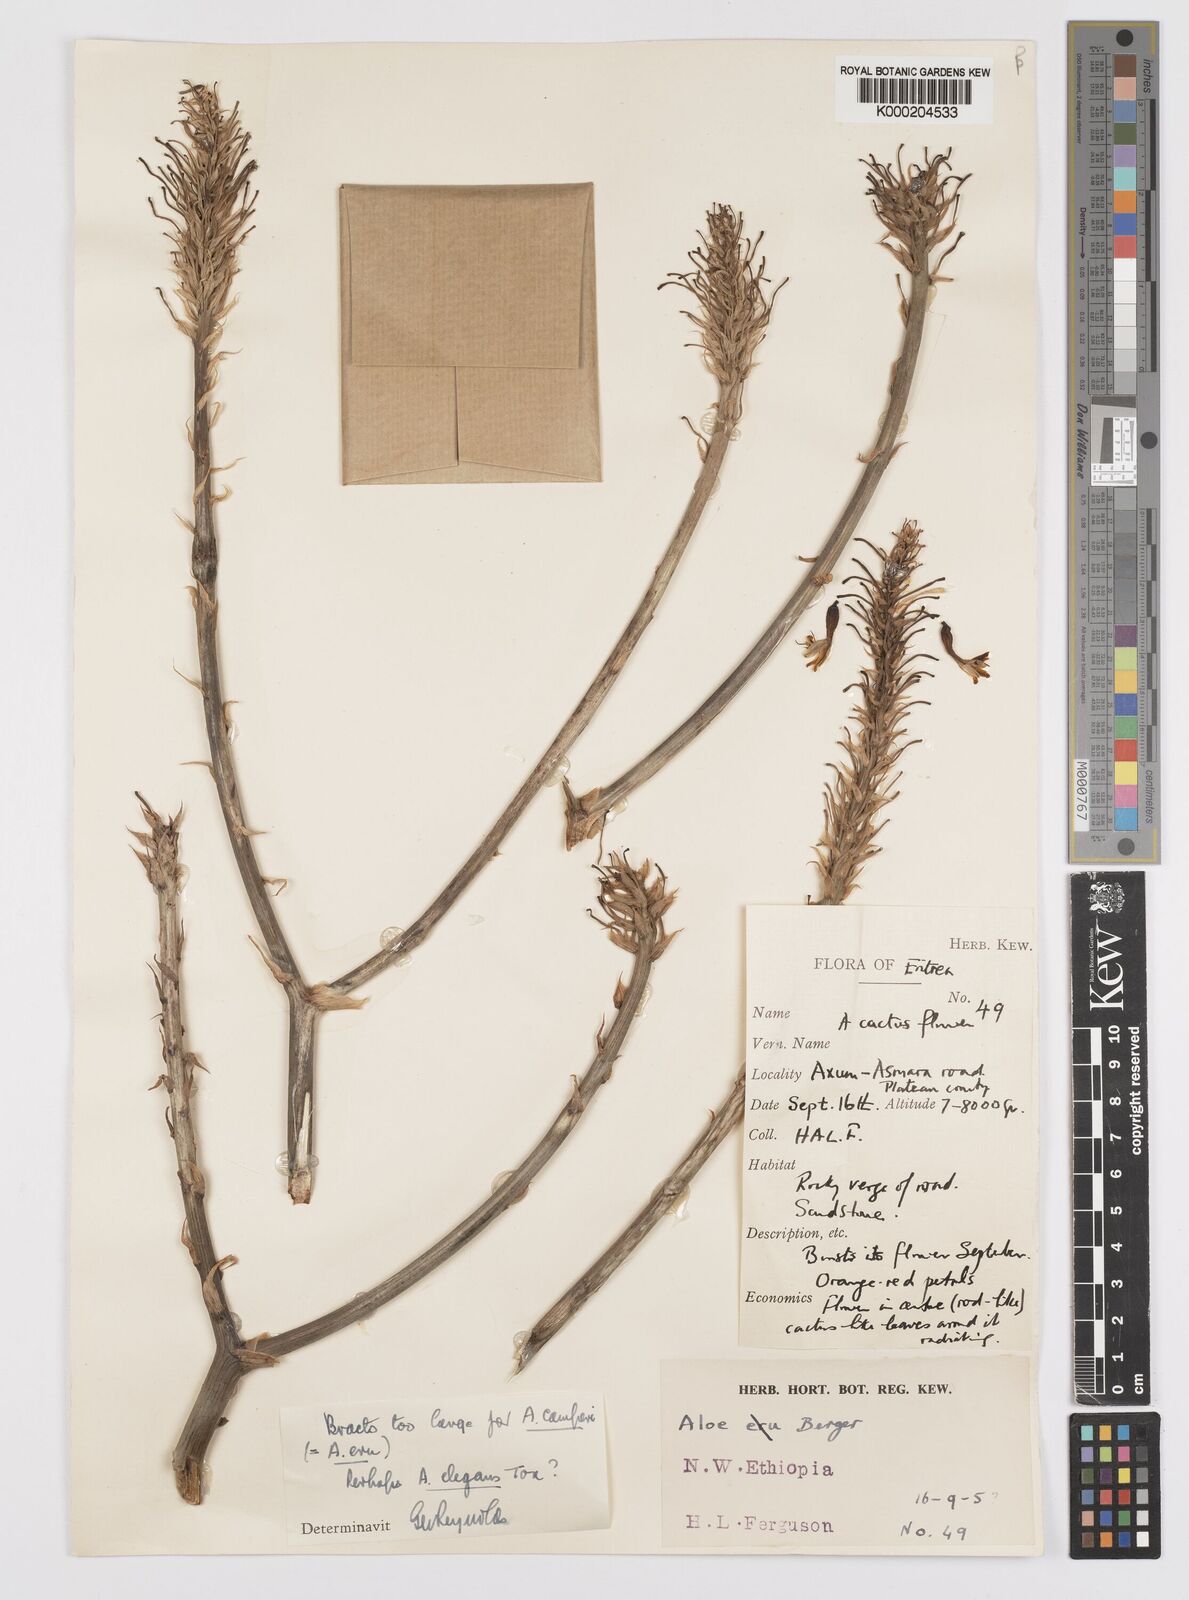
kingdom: Plantae
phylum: Tracheophyta
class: Liliopsida
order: Asparagales
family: Asphodelaceae
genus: Aloe
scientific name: Aloe elegans
